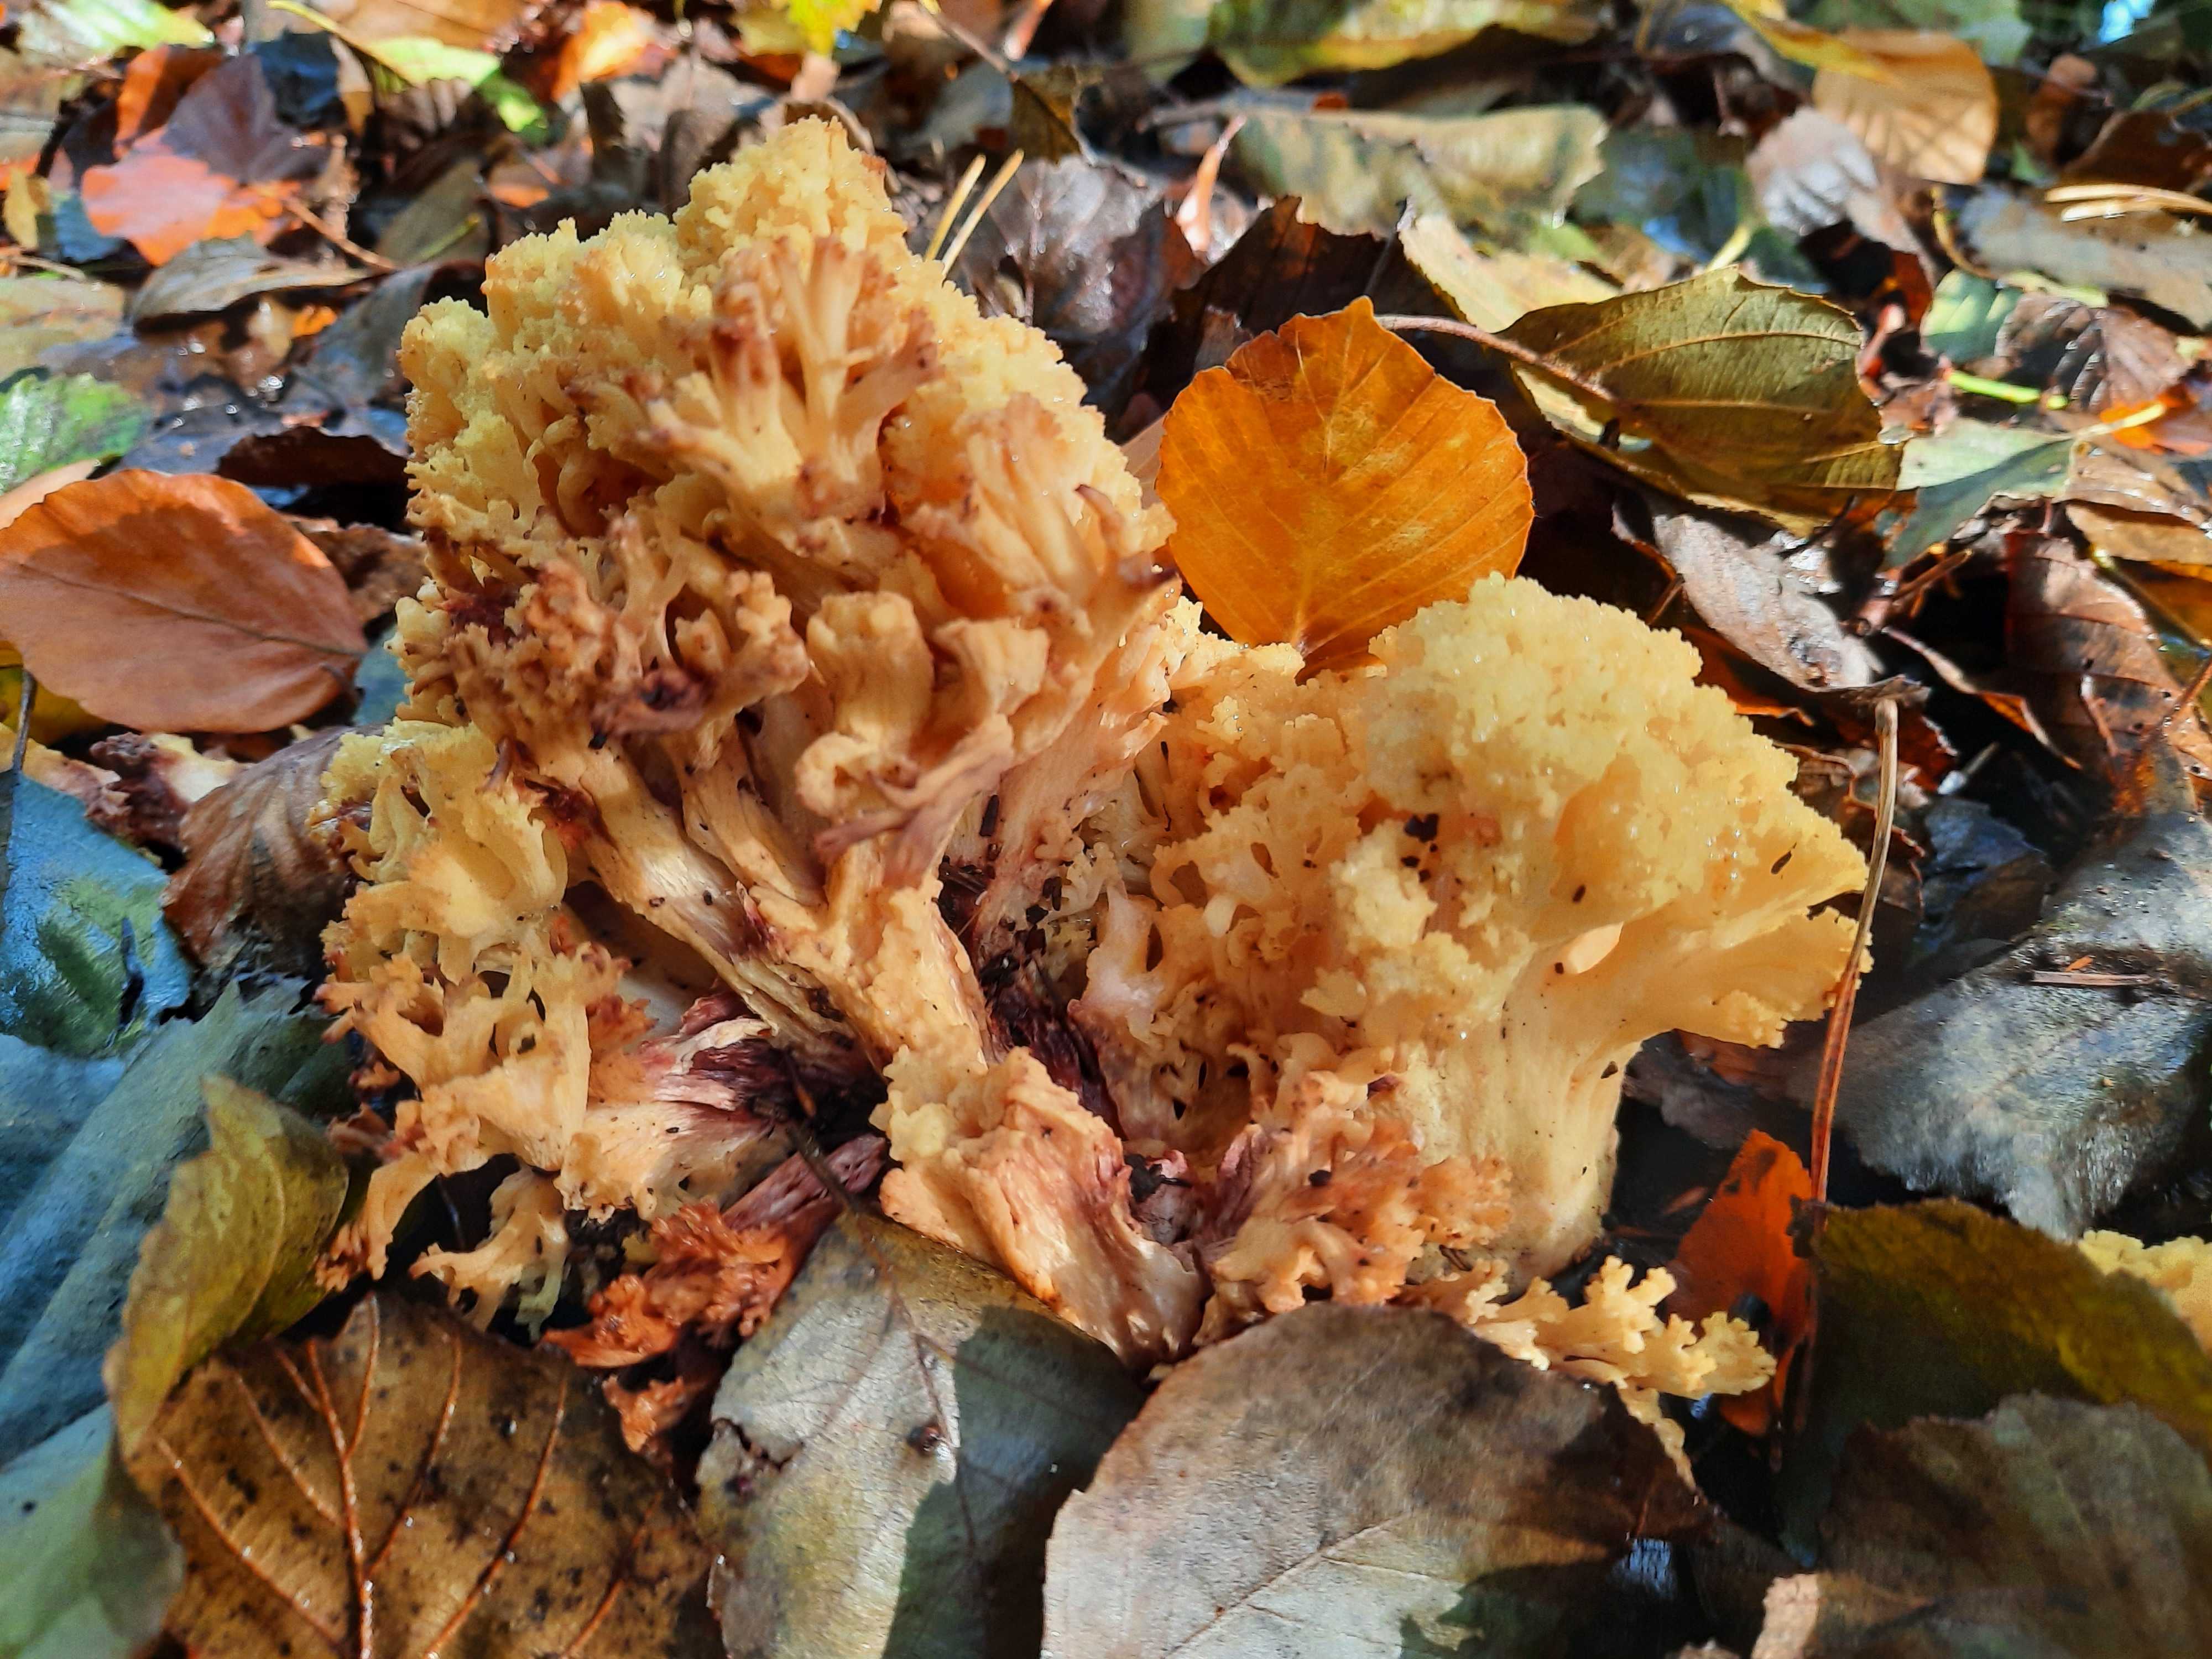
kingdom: Fungi
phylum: Basidiomycota
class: Agaricomycetes
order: Gomphales
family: Gomphaceae
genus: Ramaria
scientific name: Ramaria sanguinea
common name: blodplettet koralsvamp
